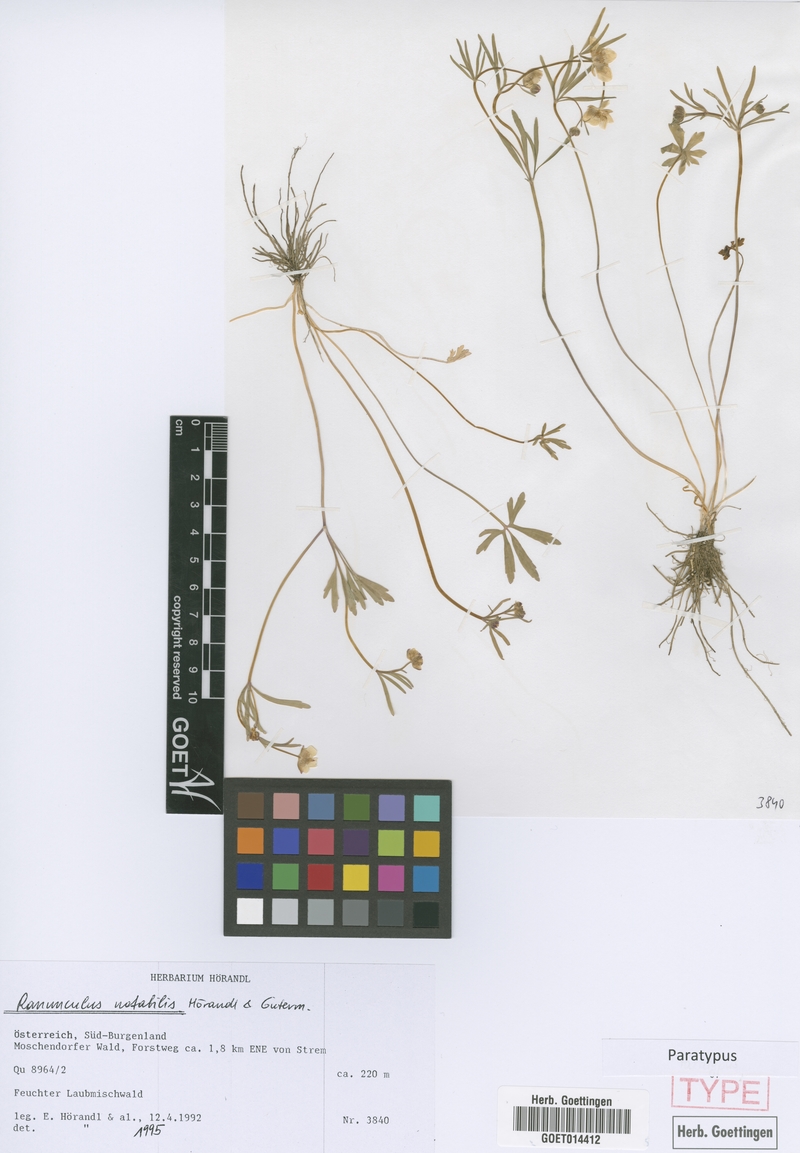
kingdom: Plantae
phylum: Tracheophyta
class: Magnoliopsida
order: Ranunculales
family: Ranunculaceae
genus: Ranunculus
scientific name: Ranunculus notabilis
